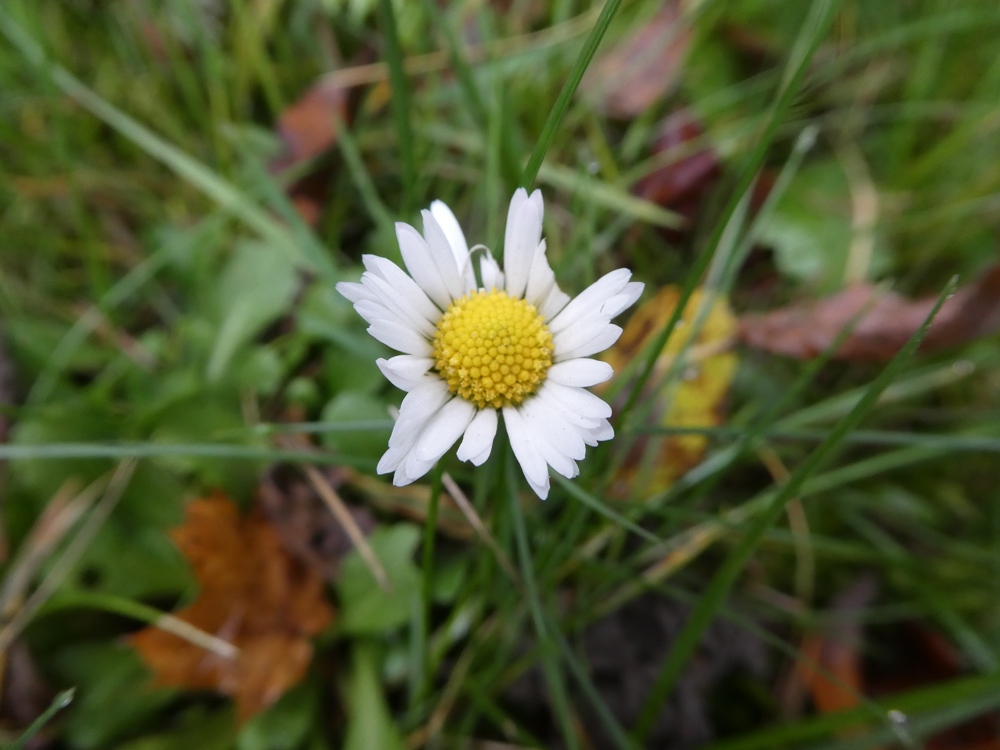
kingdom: Plantae
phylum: Tracheophyta
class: Magnoliopsida
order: Asterales
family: Asteraceae
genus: Bellis
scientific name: Bellis perennis
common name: Lawndaisy
